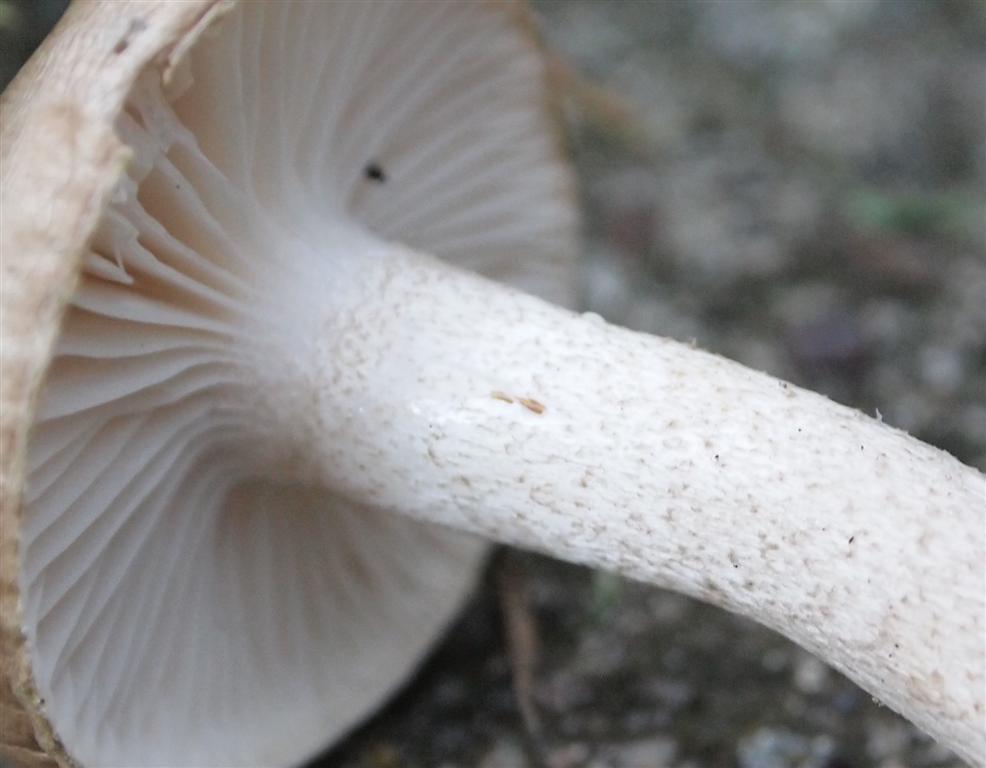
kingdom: Fungi
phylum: Basidiomycota
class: Agaricomycetes
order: Agaricales
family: Hygrophoraceae
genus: Hygrophorus
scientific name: Hygrophorus pustulatus
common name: mørkprikket sneglehat
